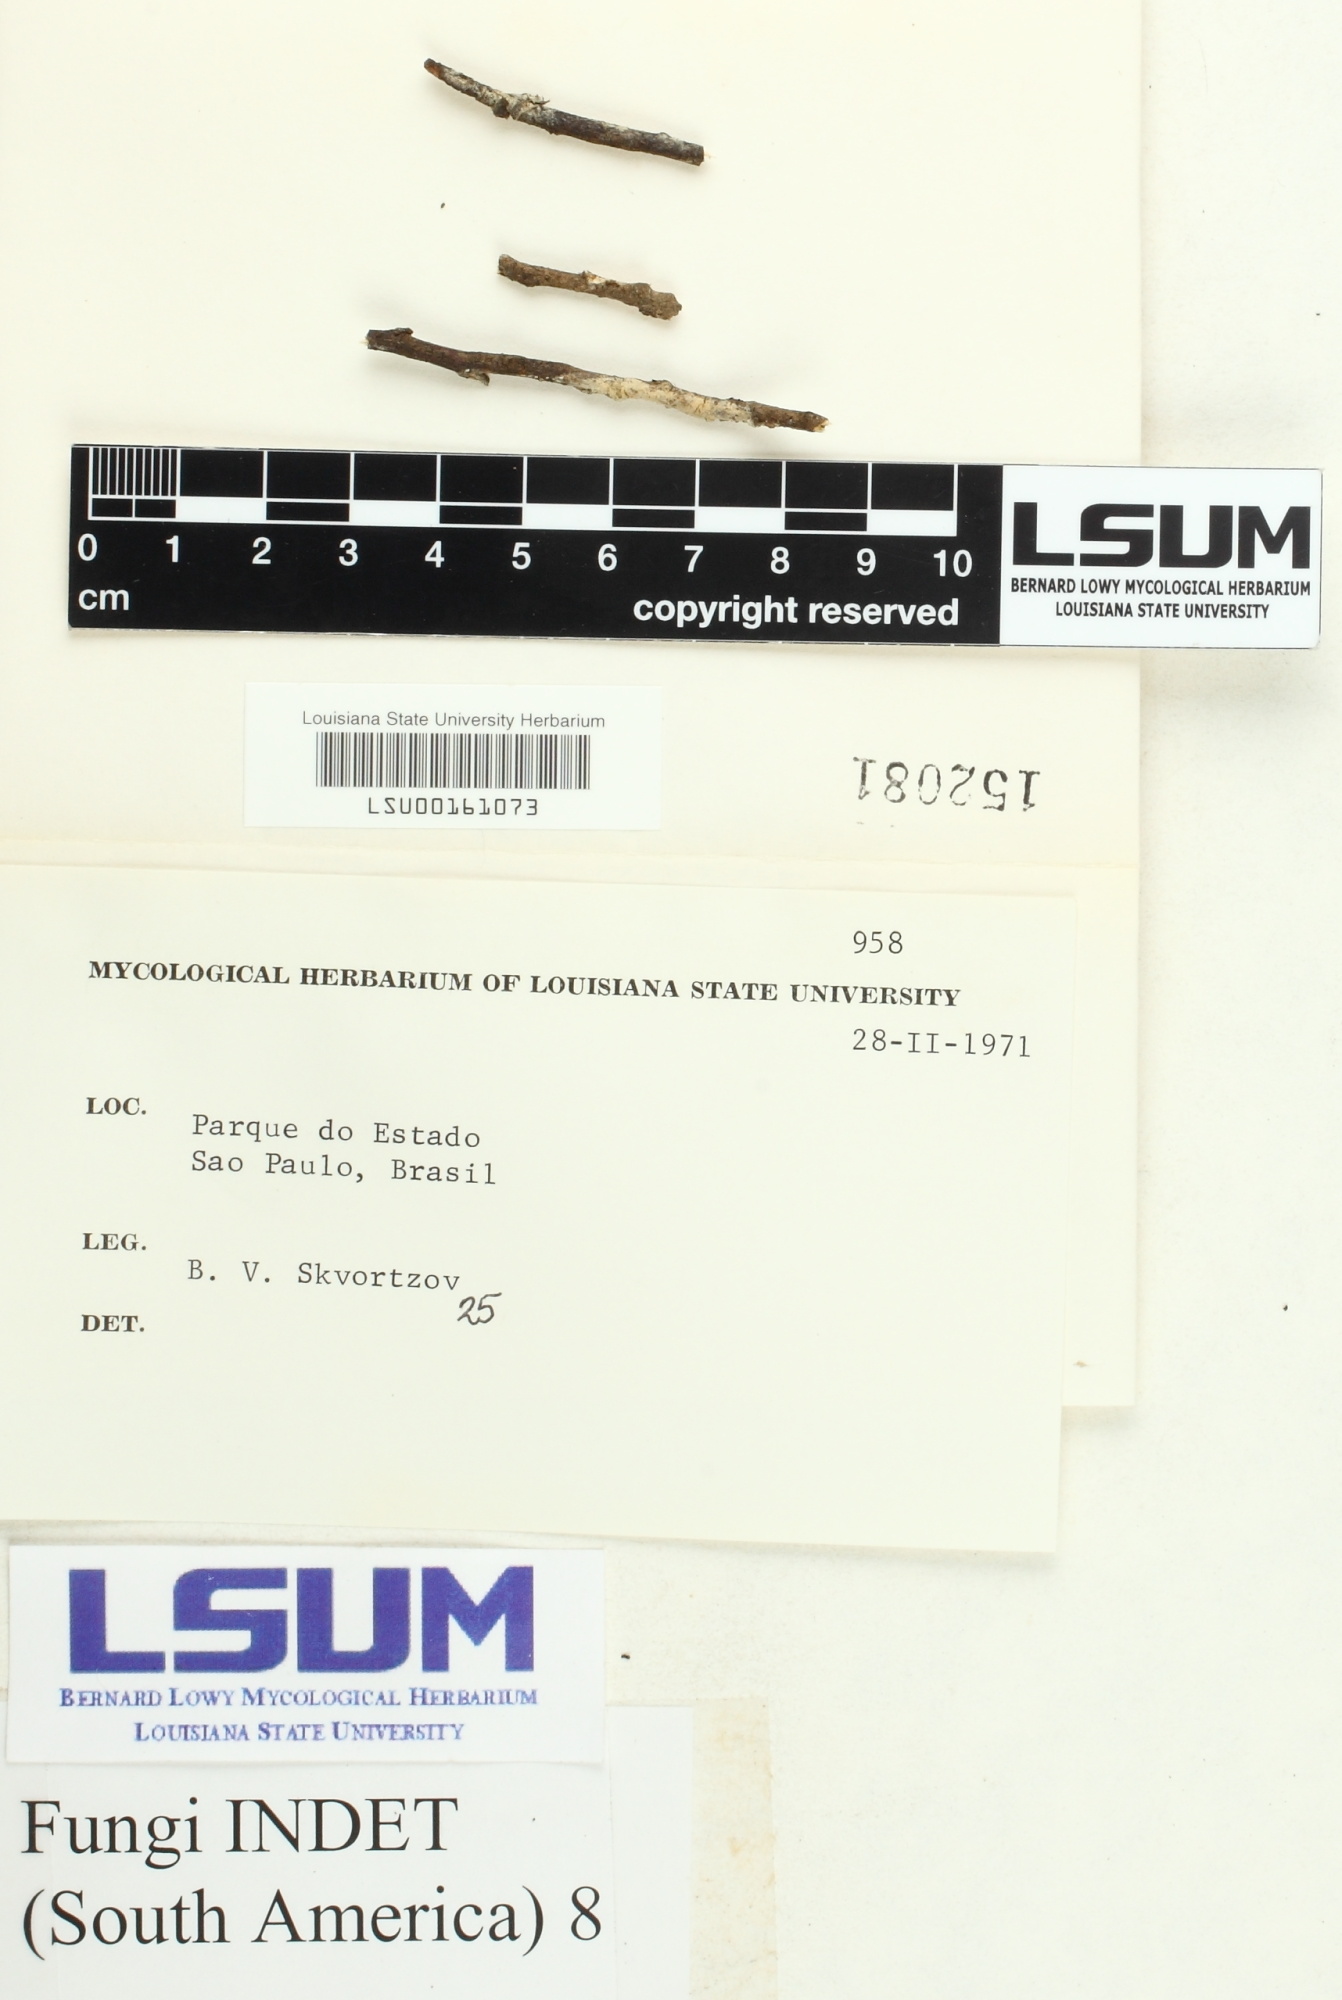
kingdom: Fungi
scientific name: Fungi
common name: Fungi
